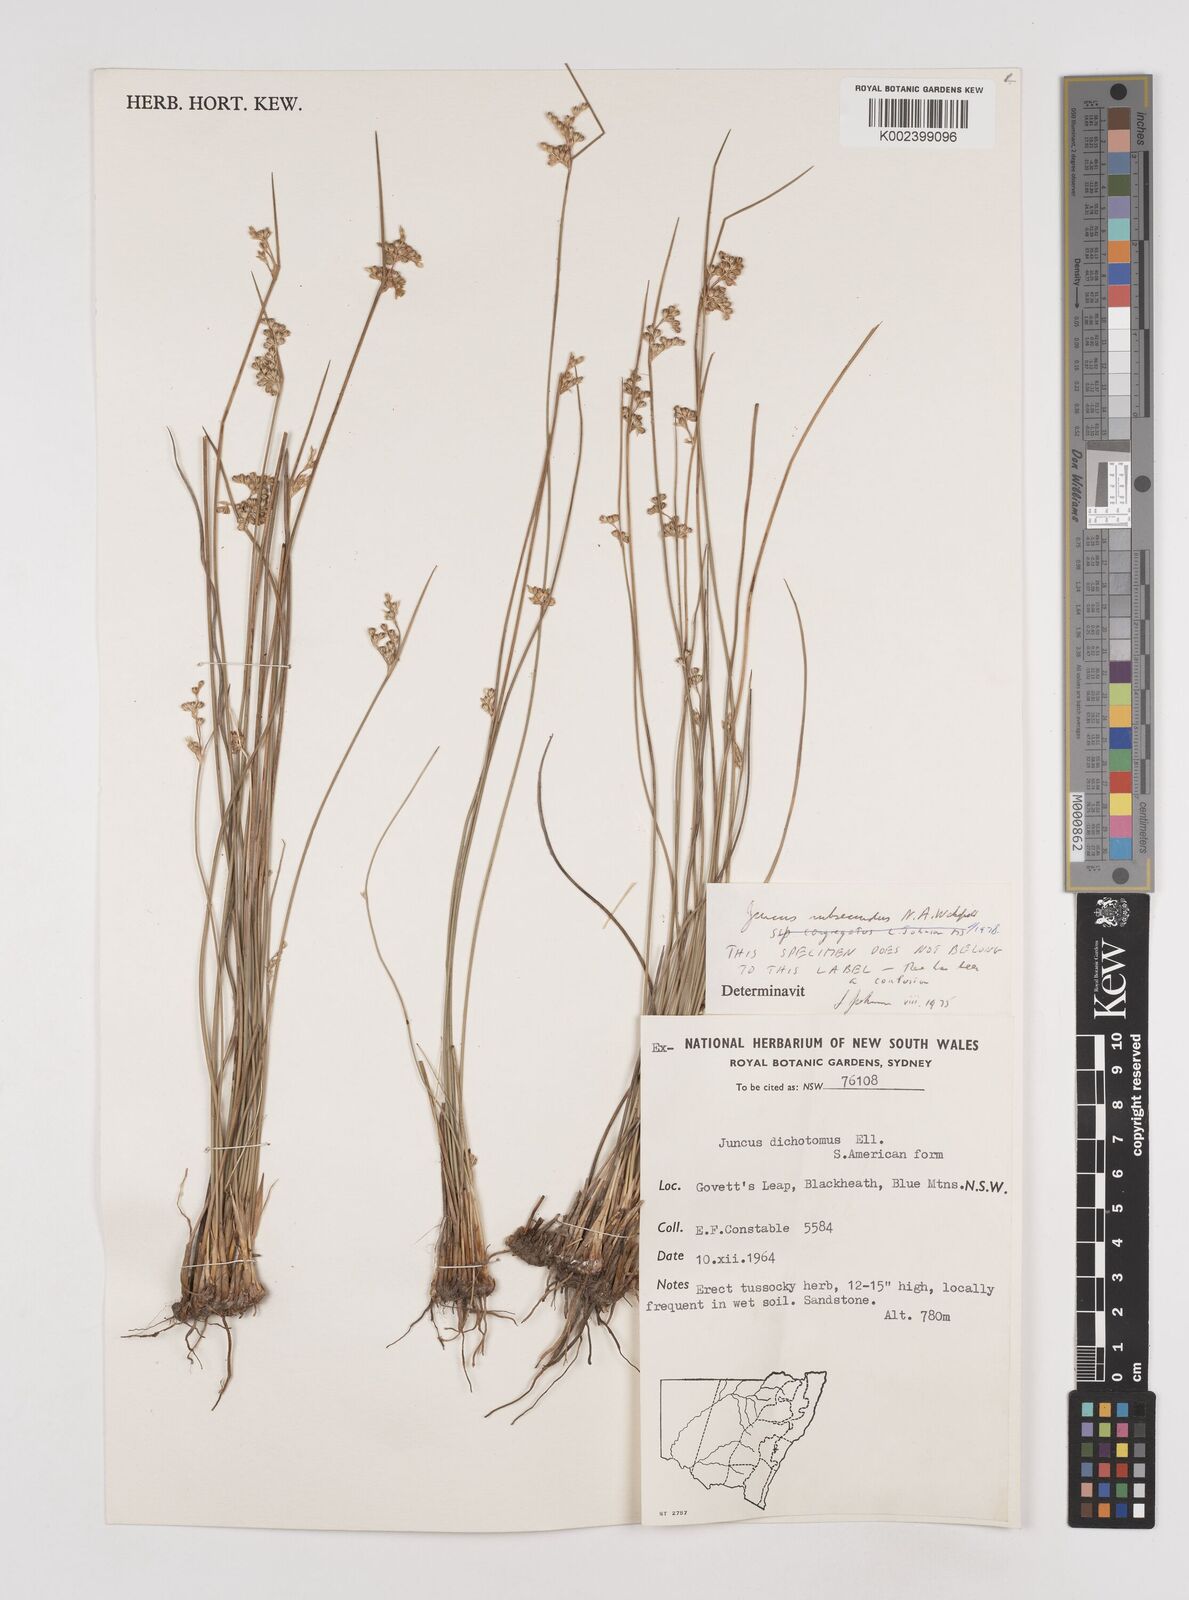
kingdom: Plantae
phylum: Tracheophyta
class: Liliopsida
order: Poales
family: Juncaceae
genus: Juncus
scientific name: Juncus subsecundus
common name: Fingered rush
